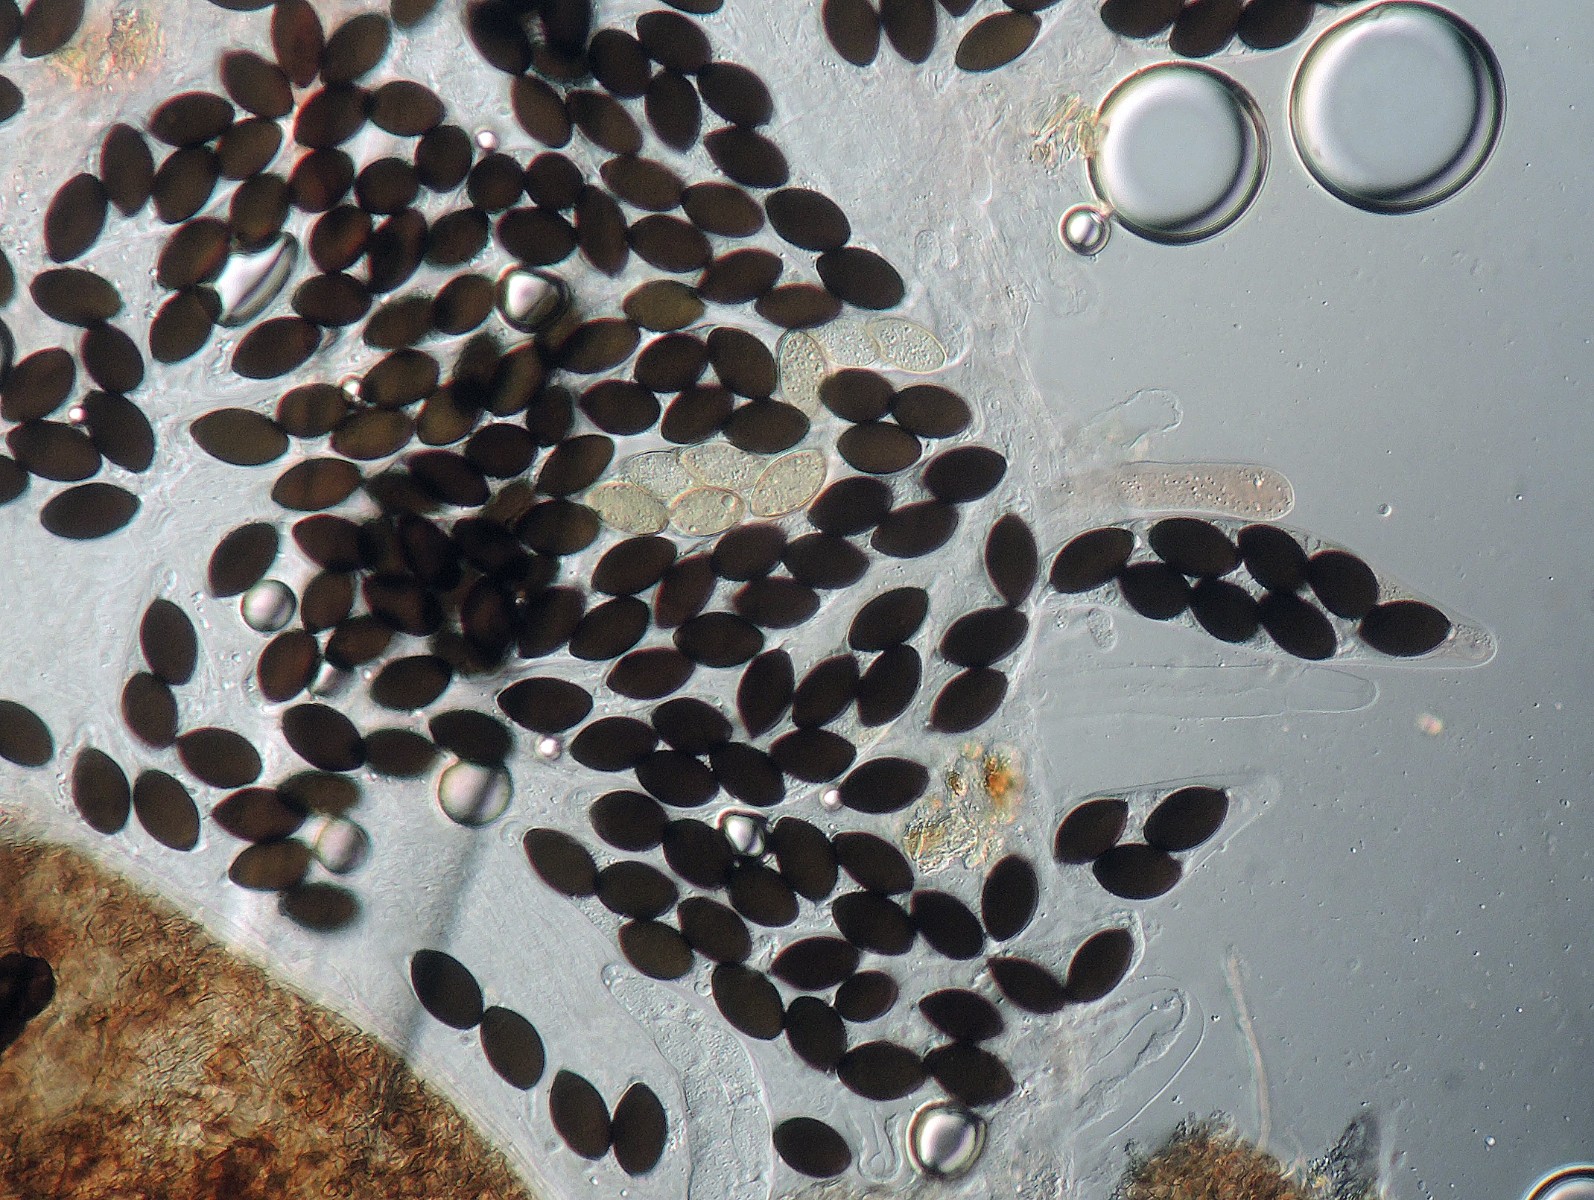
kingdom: Fungi
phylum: Ascomycota
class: Sordariomycetes
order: Sordariales
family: Lasiosphaeriaceae
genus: Schizothecium
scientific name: Schizothecium hispidulum
